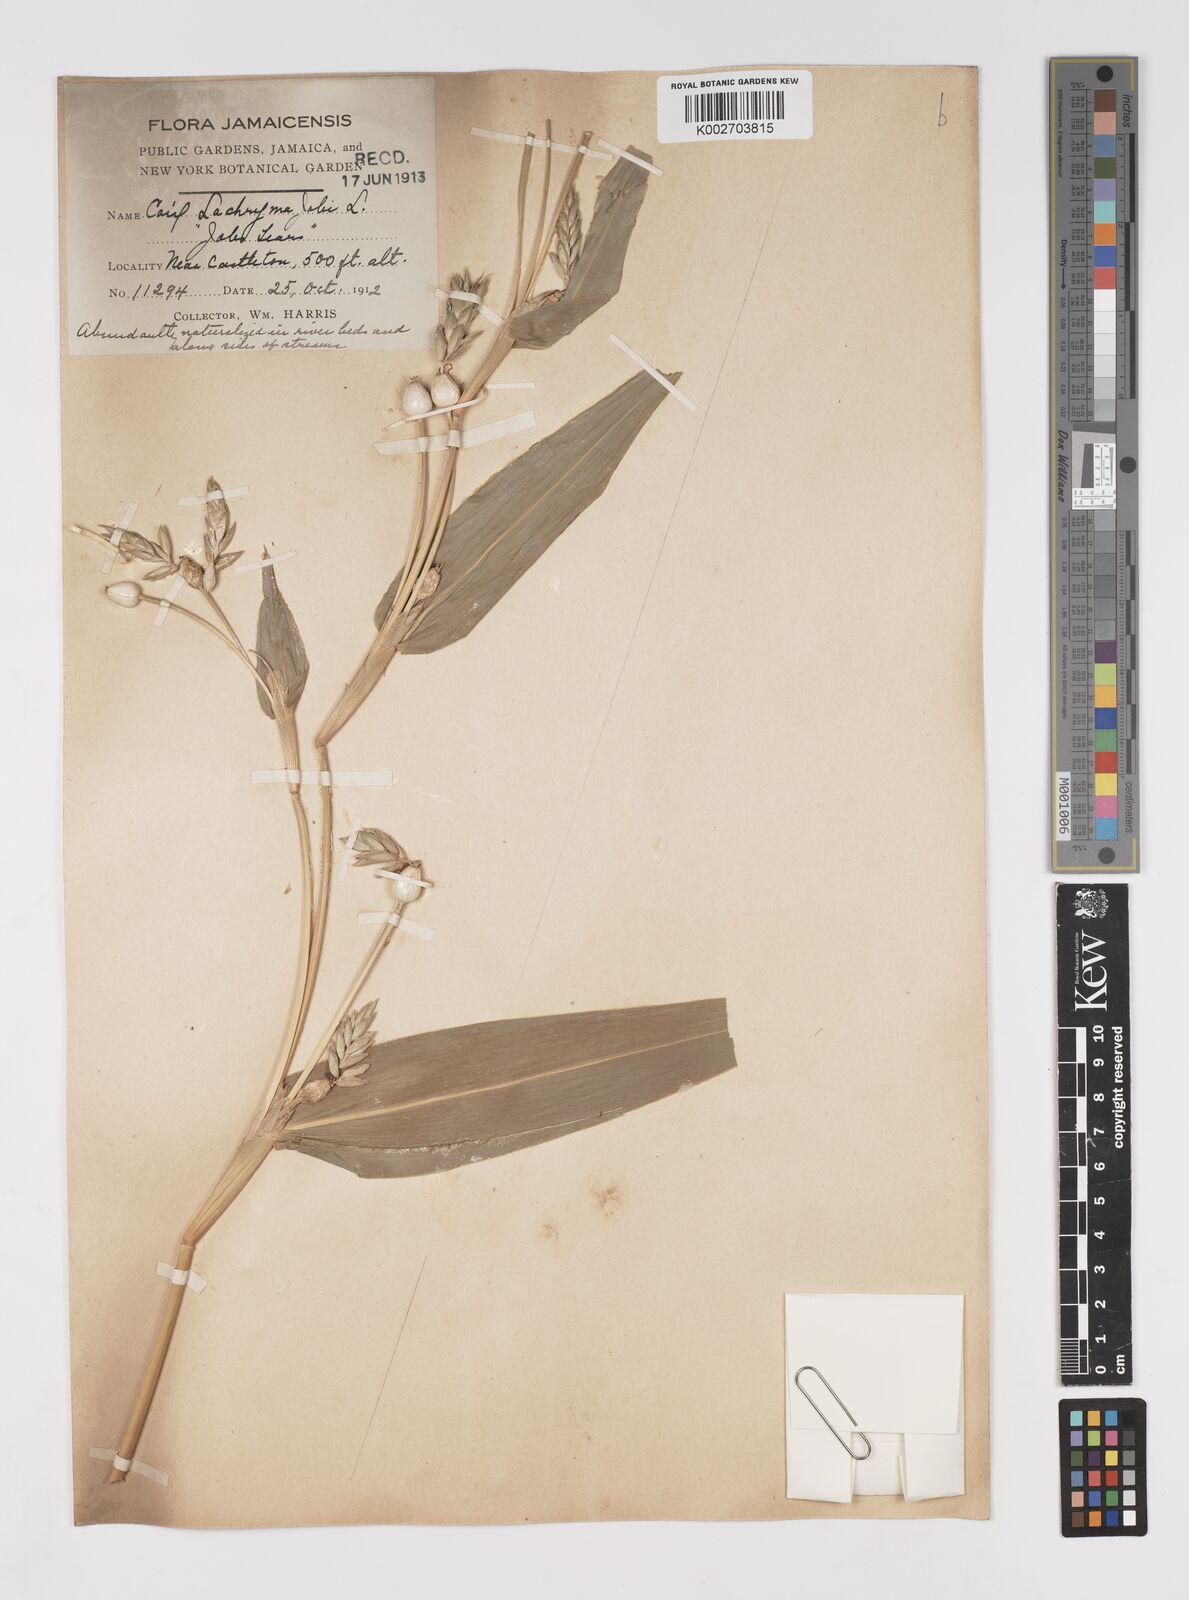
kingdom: Plantae
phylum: Tracheophyta
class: Liliopsida
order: Poales
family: Poaceae
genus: Coix
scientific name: Coix lacryma-jobi
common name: Job's tears
